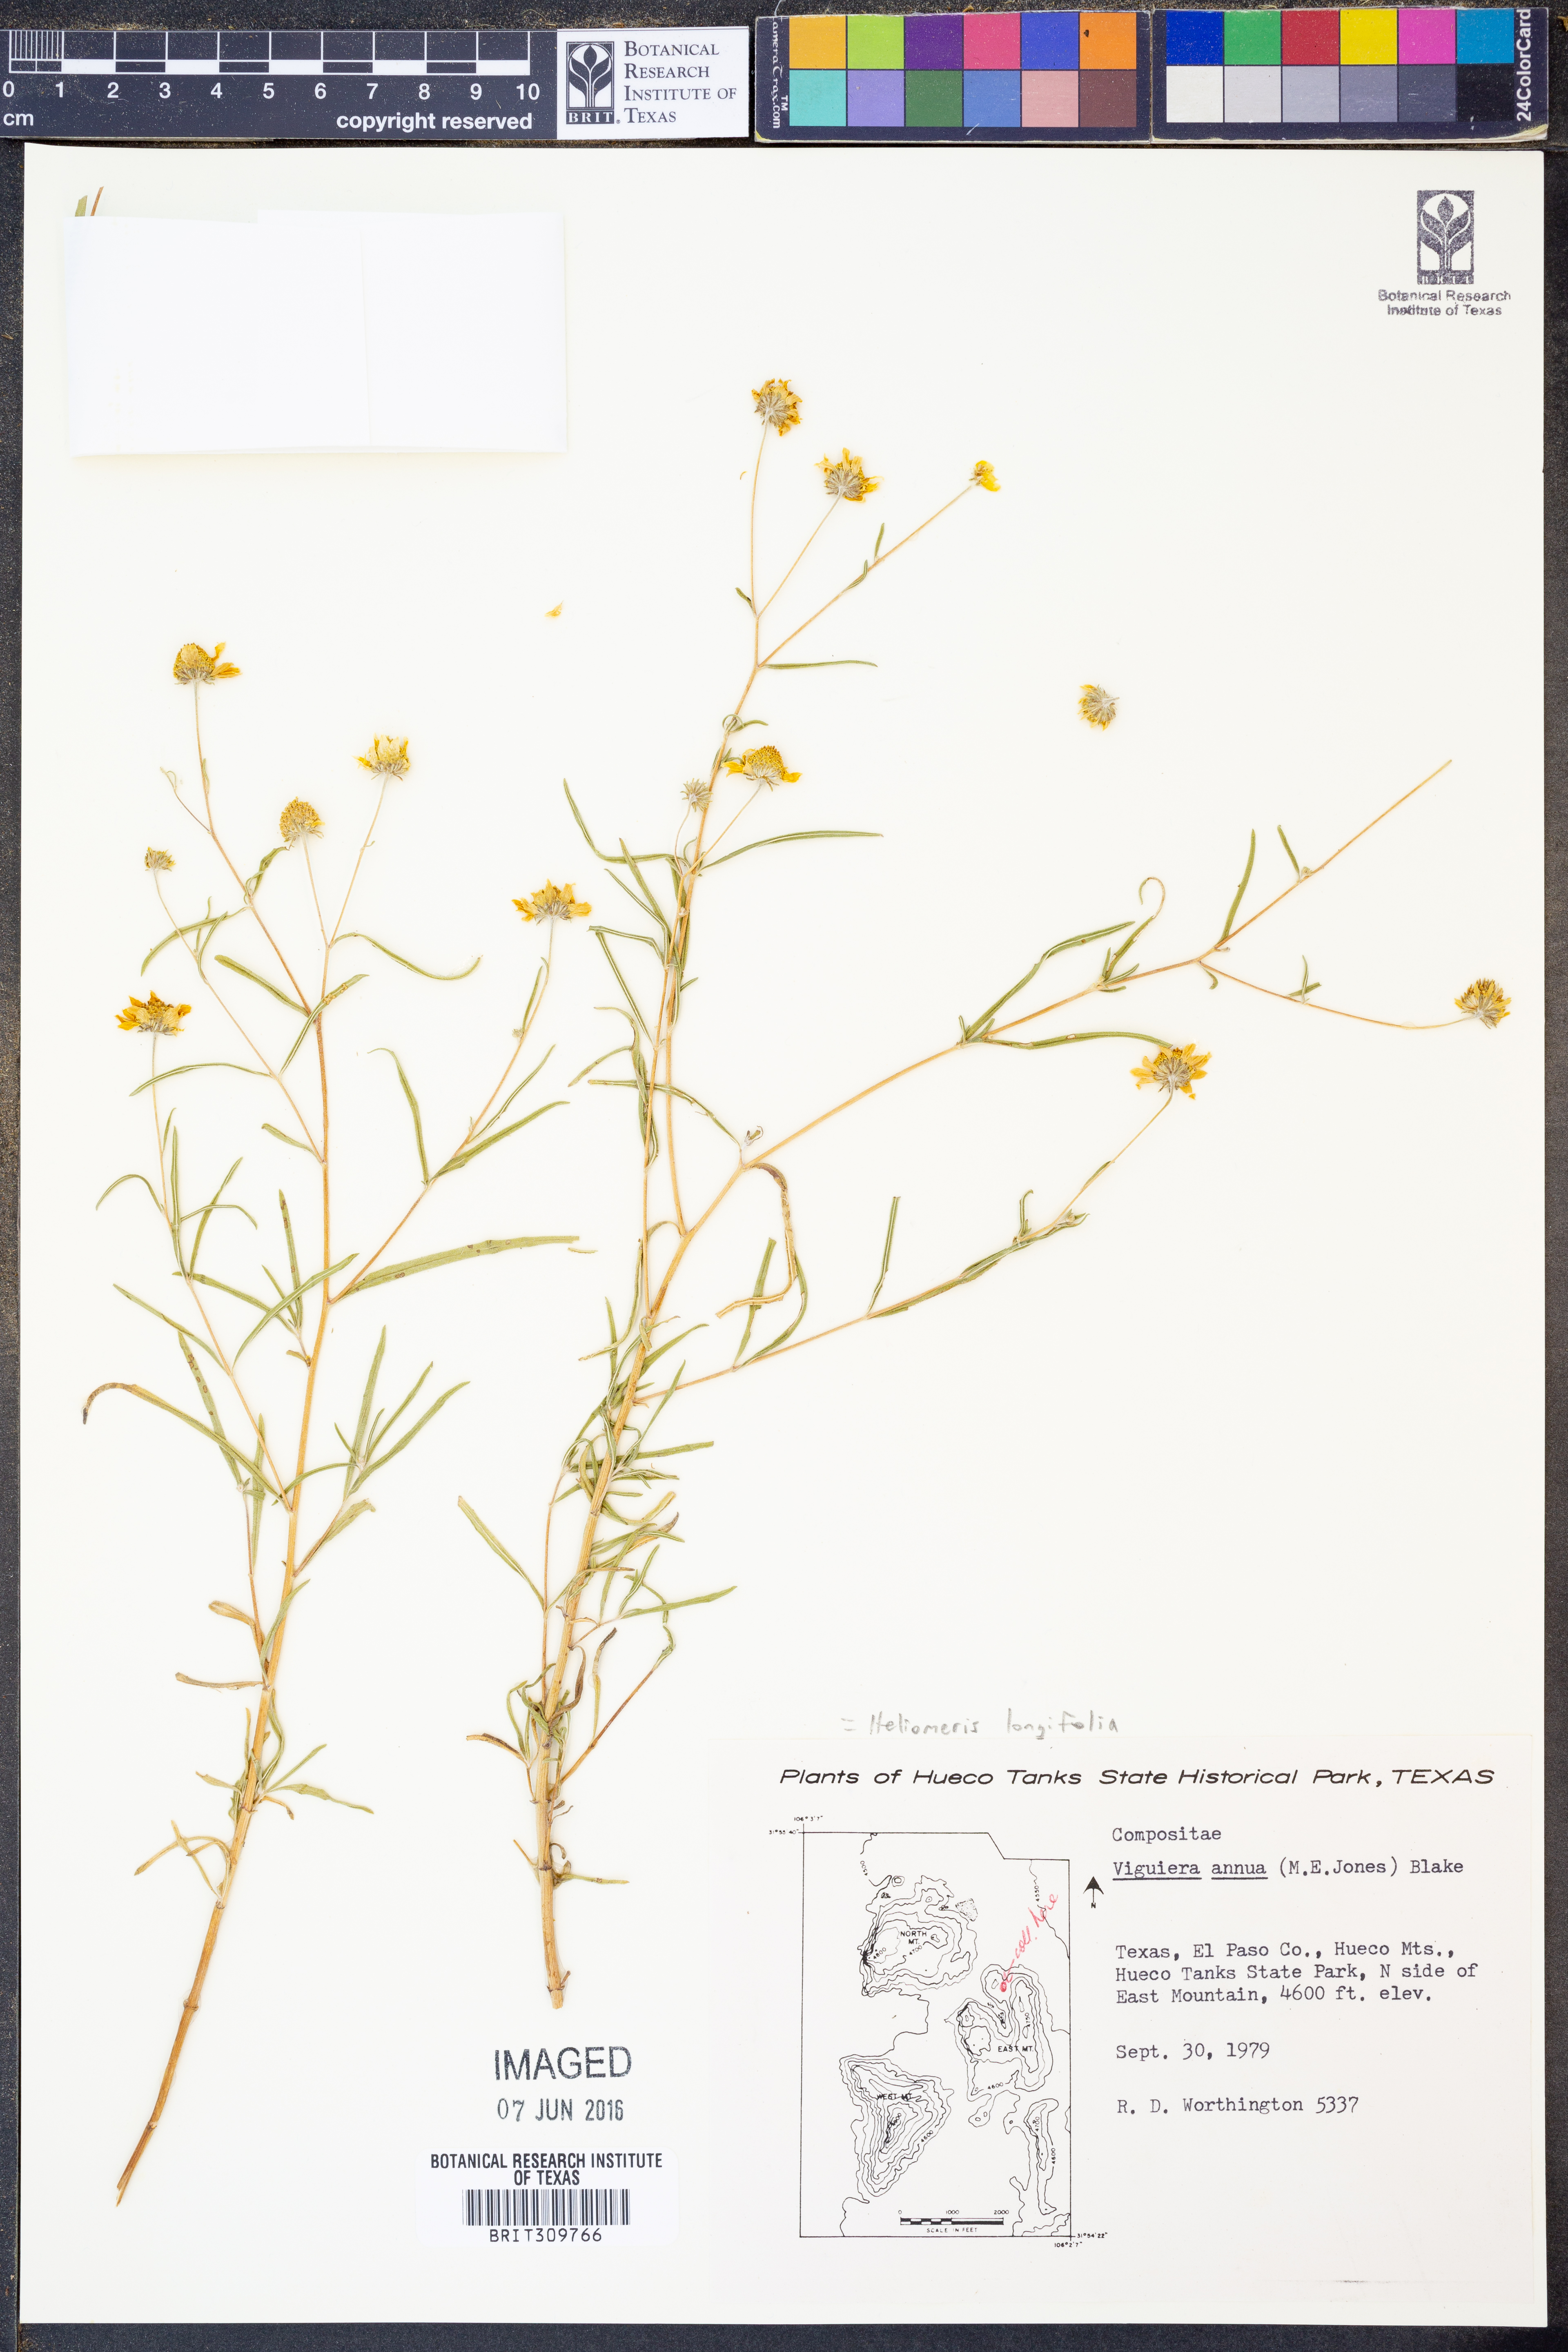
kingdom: Plantae
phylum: Tracheophyta
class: Magnoliopsida
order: Asterales
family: Asteraceae
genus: Heliomeris
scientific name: Heliomeris longifolia
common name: Longleaf false goldeneye
